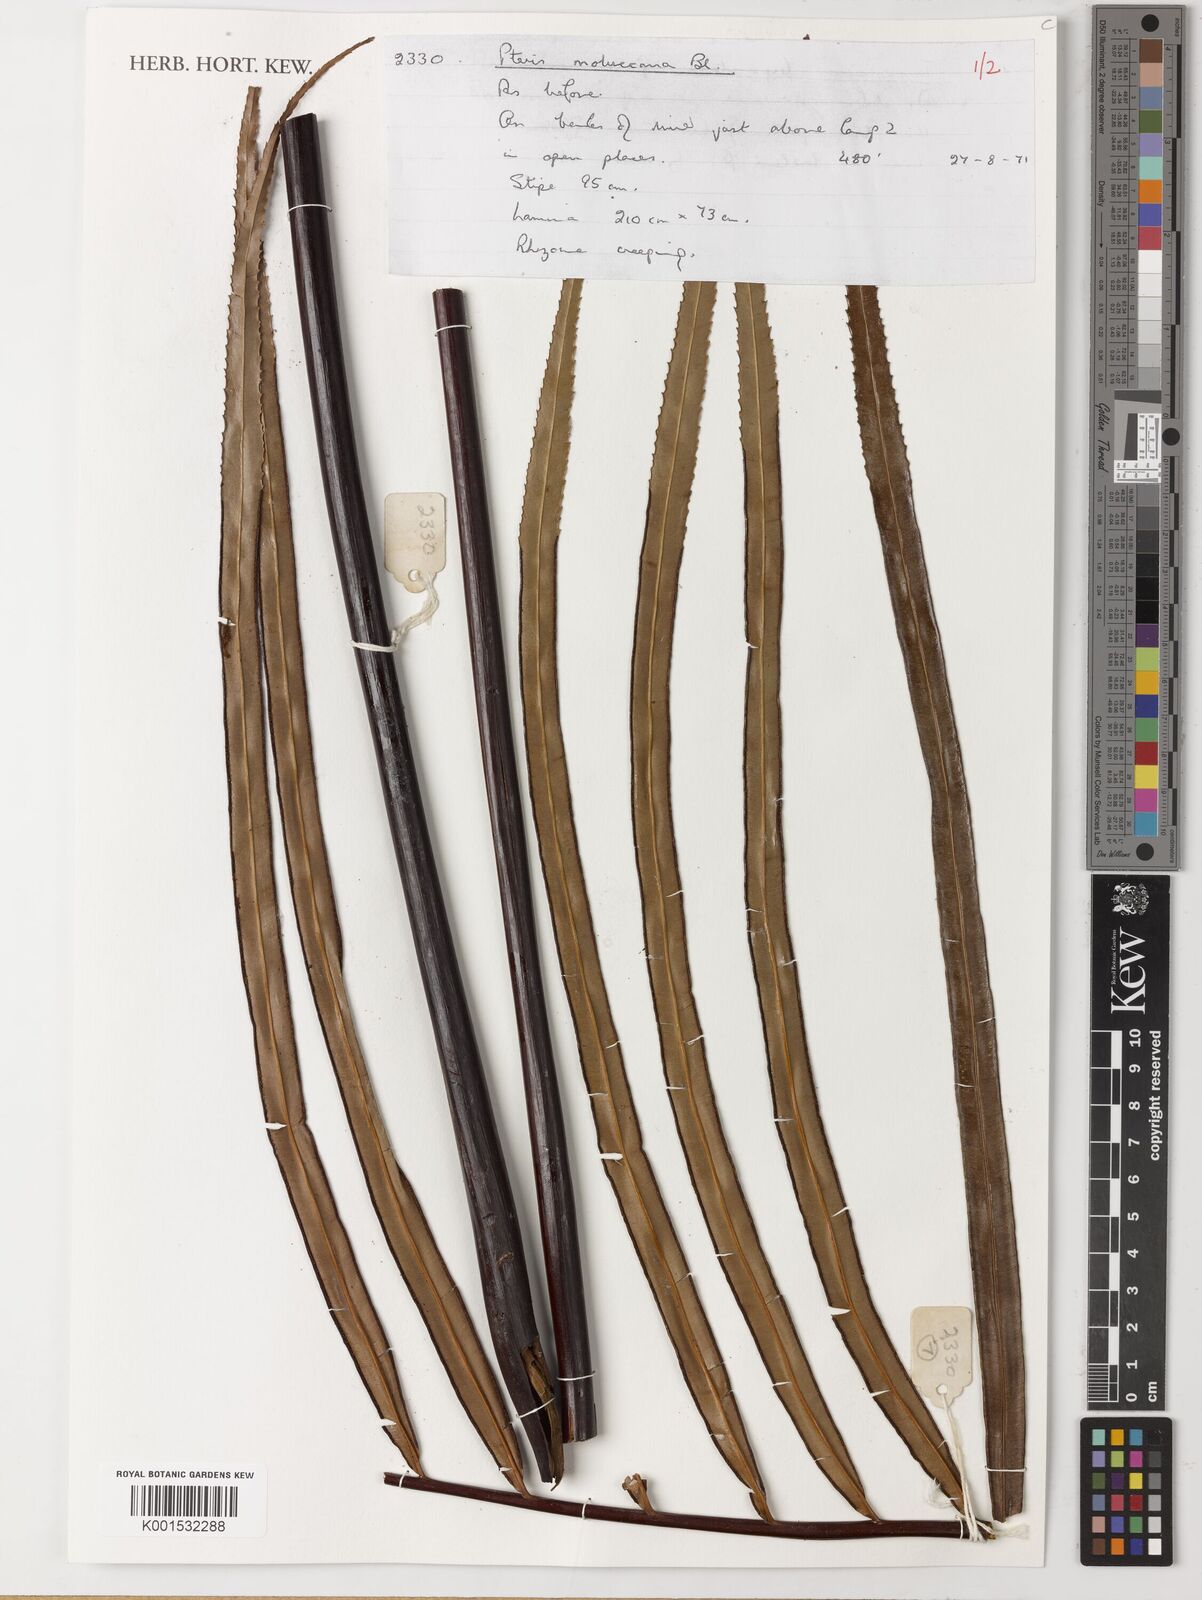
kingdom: Plantae
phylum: Tracheophyta
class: Polypodiopsida
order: Polypodiales
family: Pteridaceae
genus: Pteris
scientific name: Pteris moluccana
